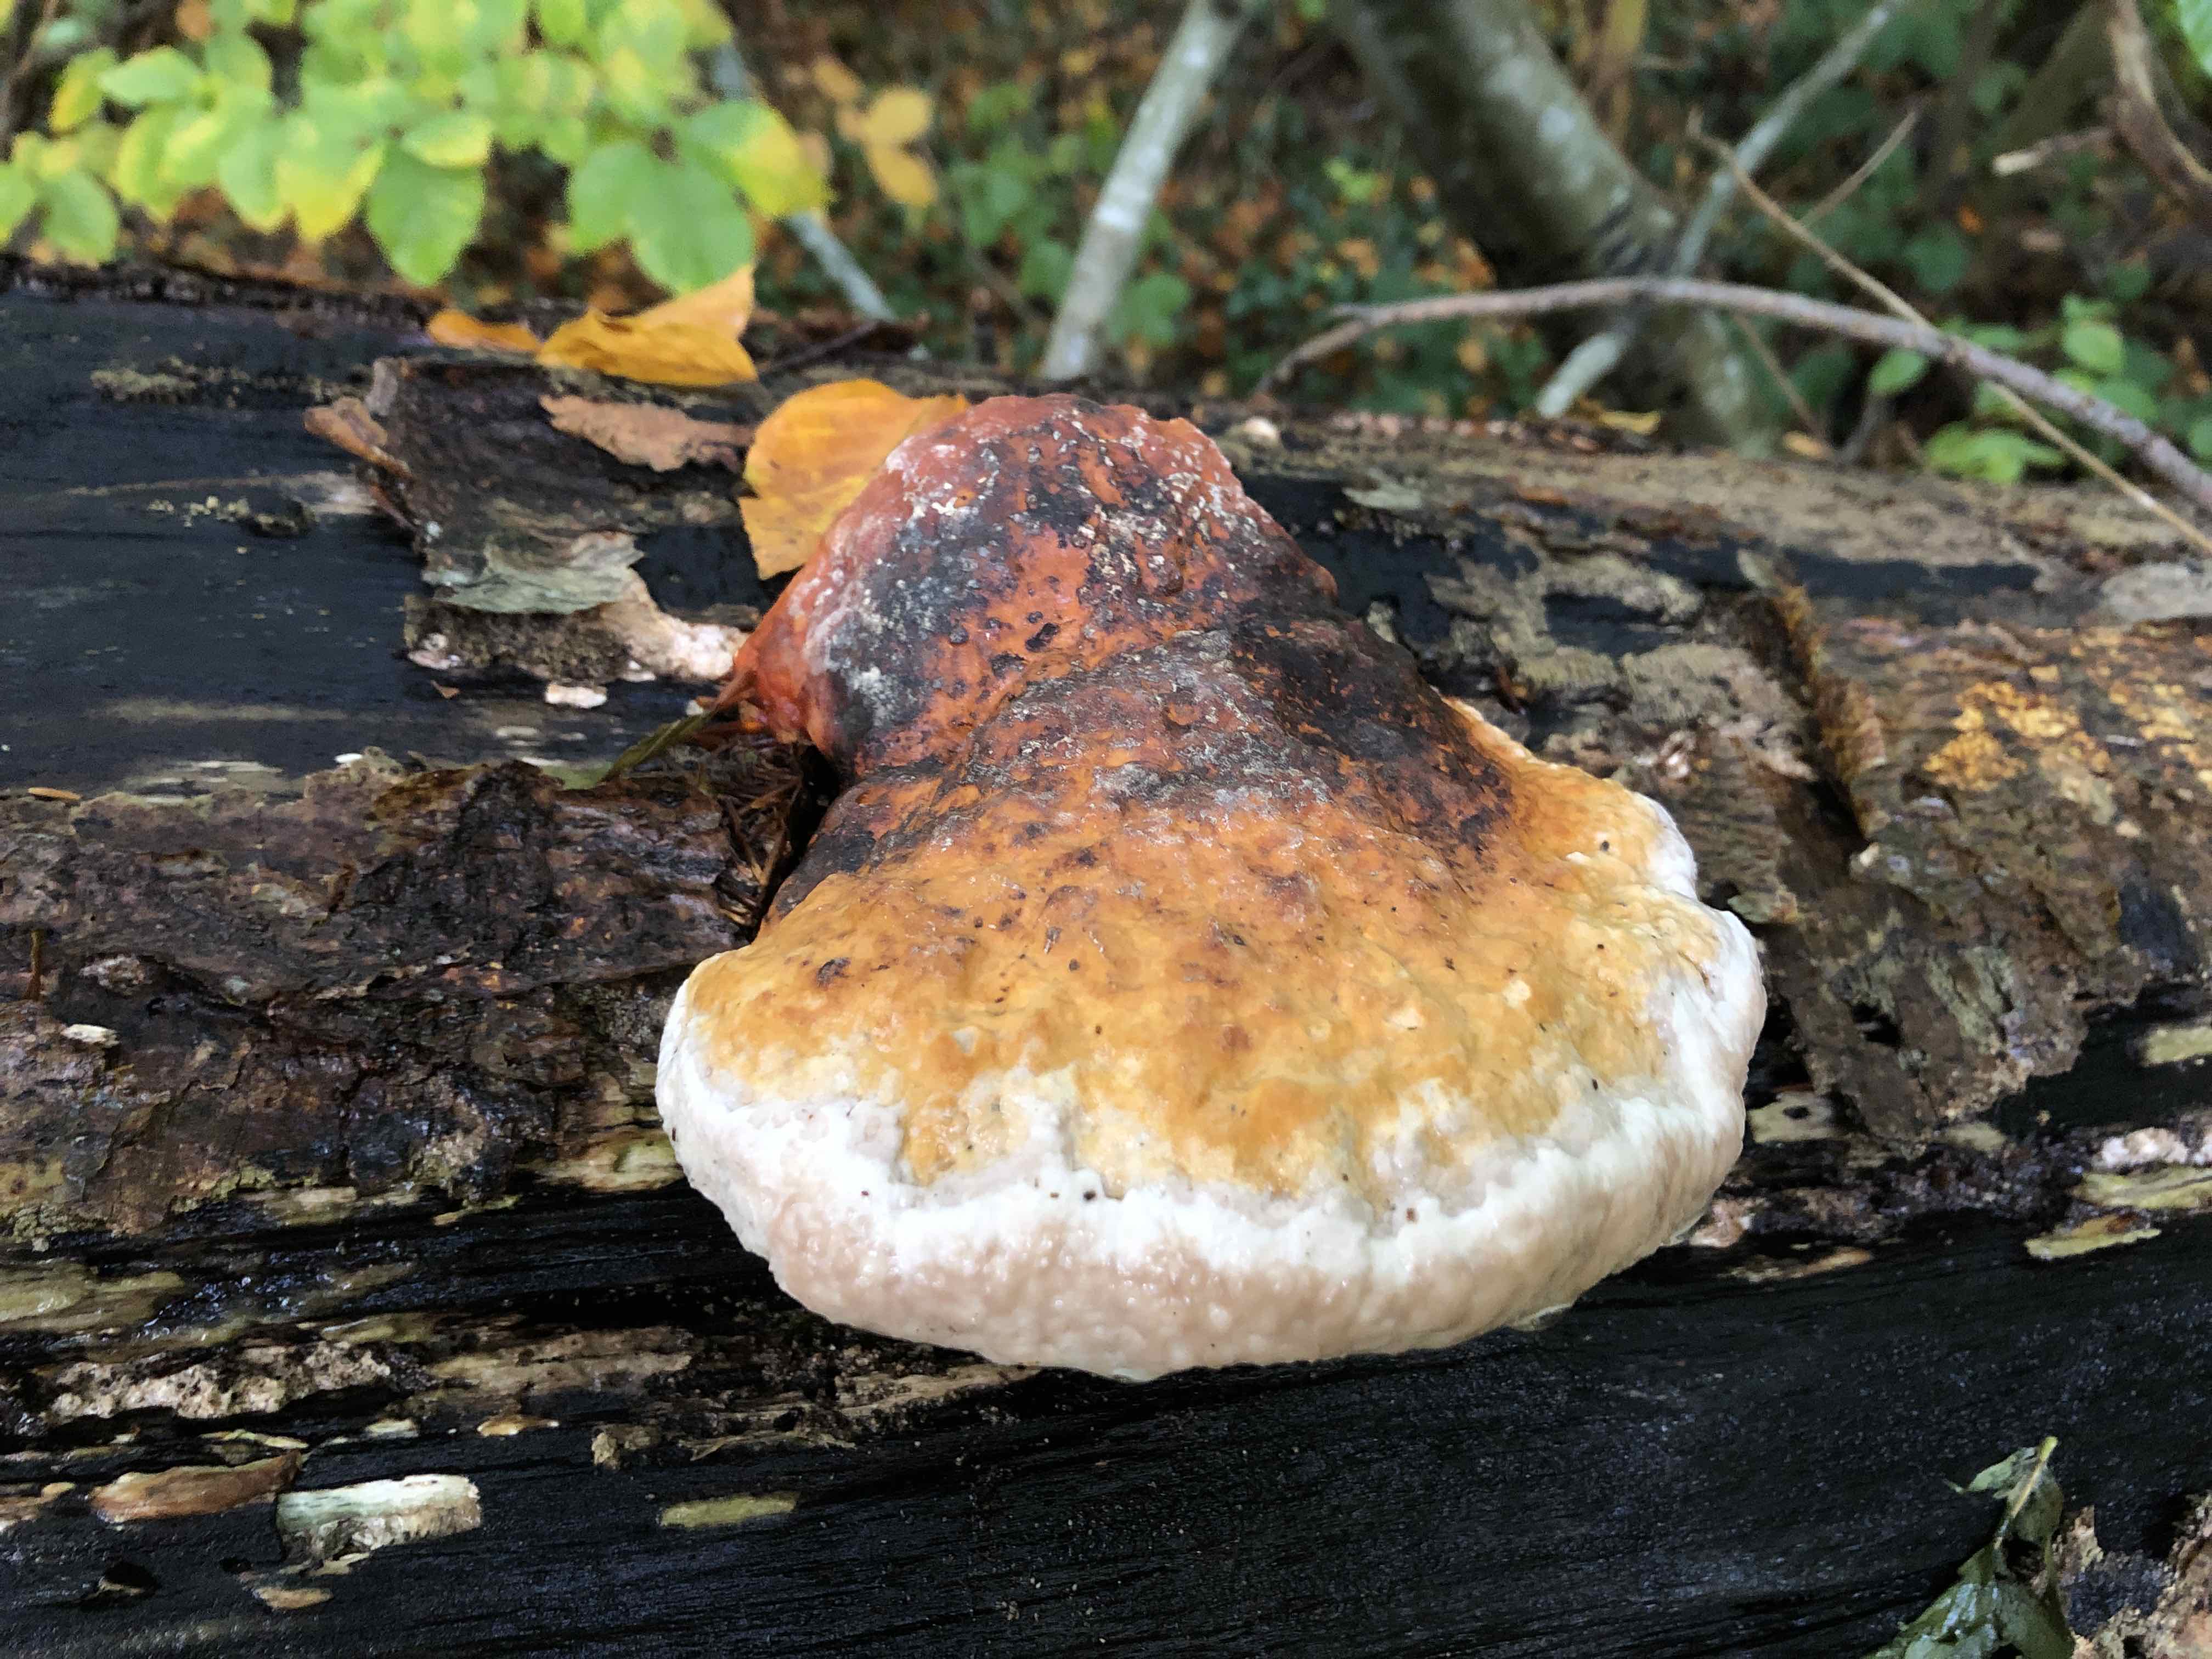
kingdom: Fungi
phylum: Basidiomycota
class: Agaricomycetes
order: Polyporales
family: Fomitopsidaceae
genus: Fomitopsis
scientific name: Fomitopsis pinicola
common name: randbæltet hovporesvamp
